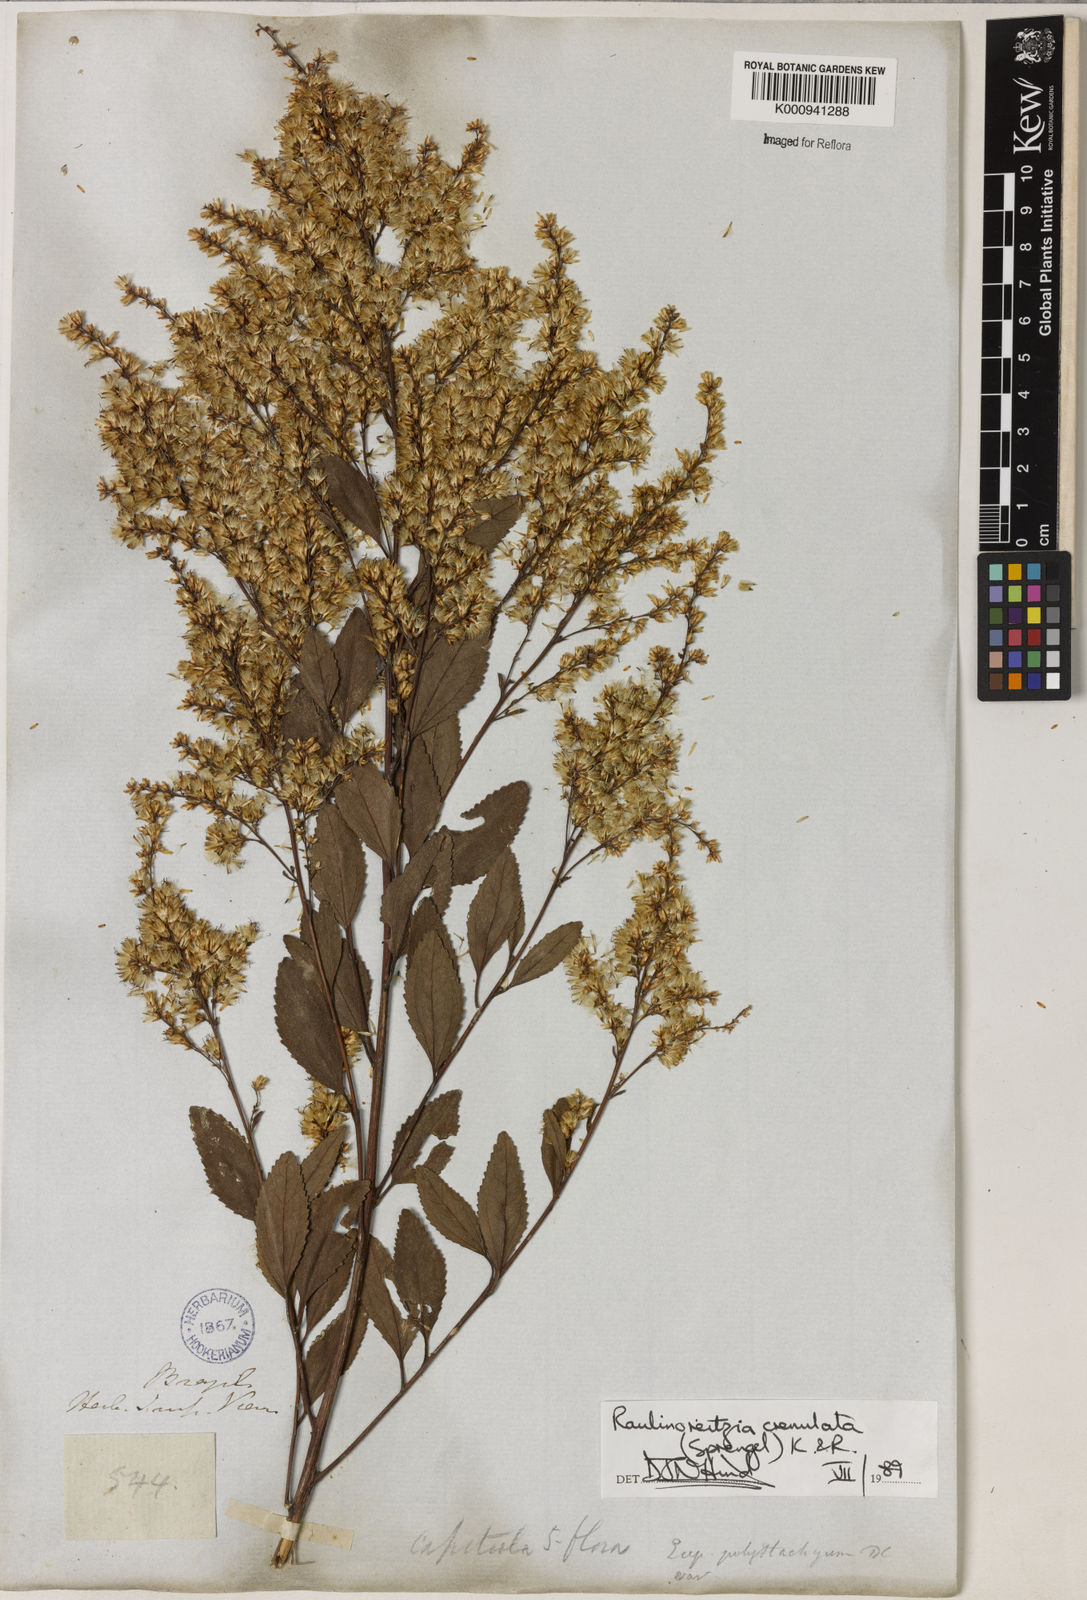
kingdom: Plantae
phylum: Tracheophyta
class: Magnoliopsida
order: Asterales
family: Asteraceae
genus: Raulinoreitzia
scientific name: Raulinoreitzia crenulata
